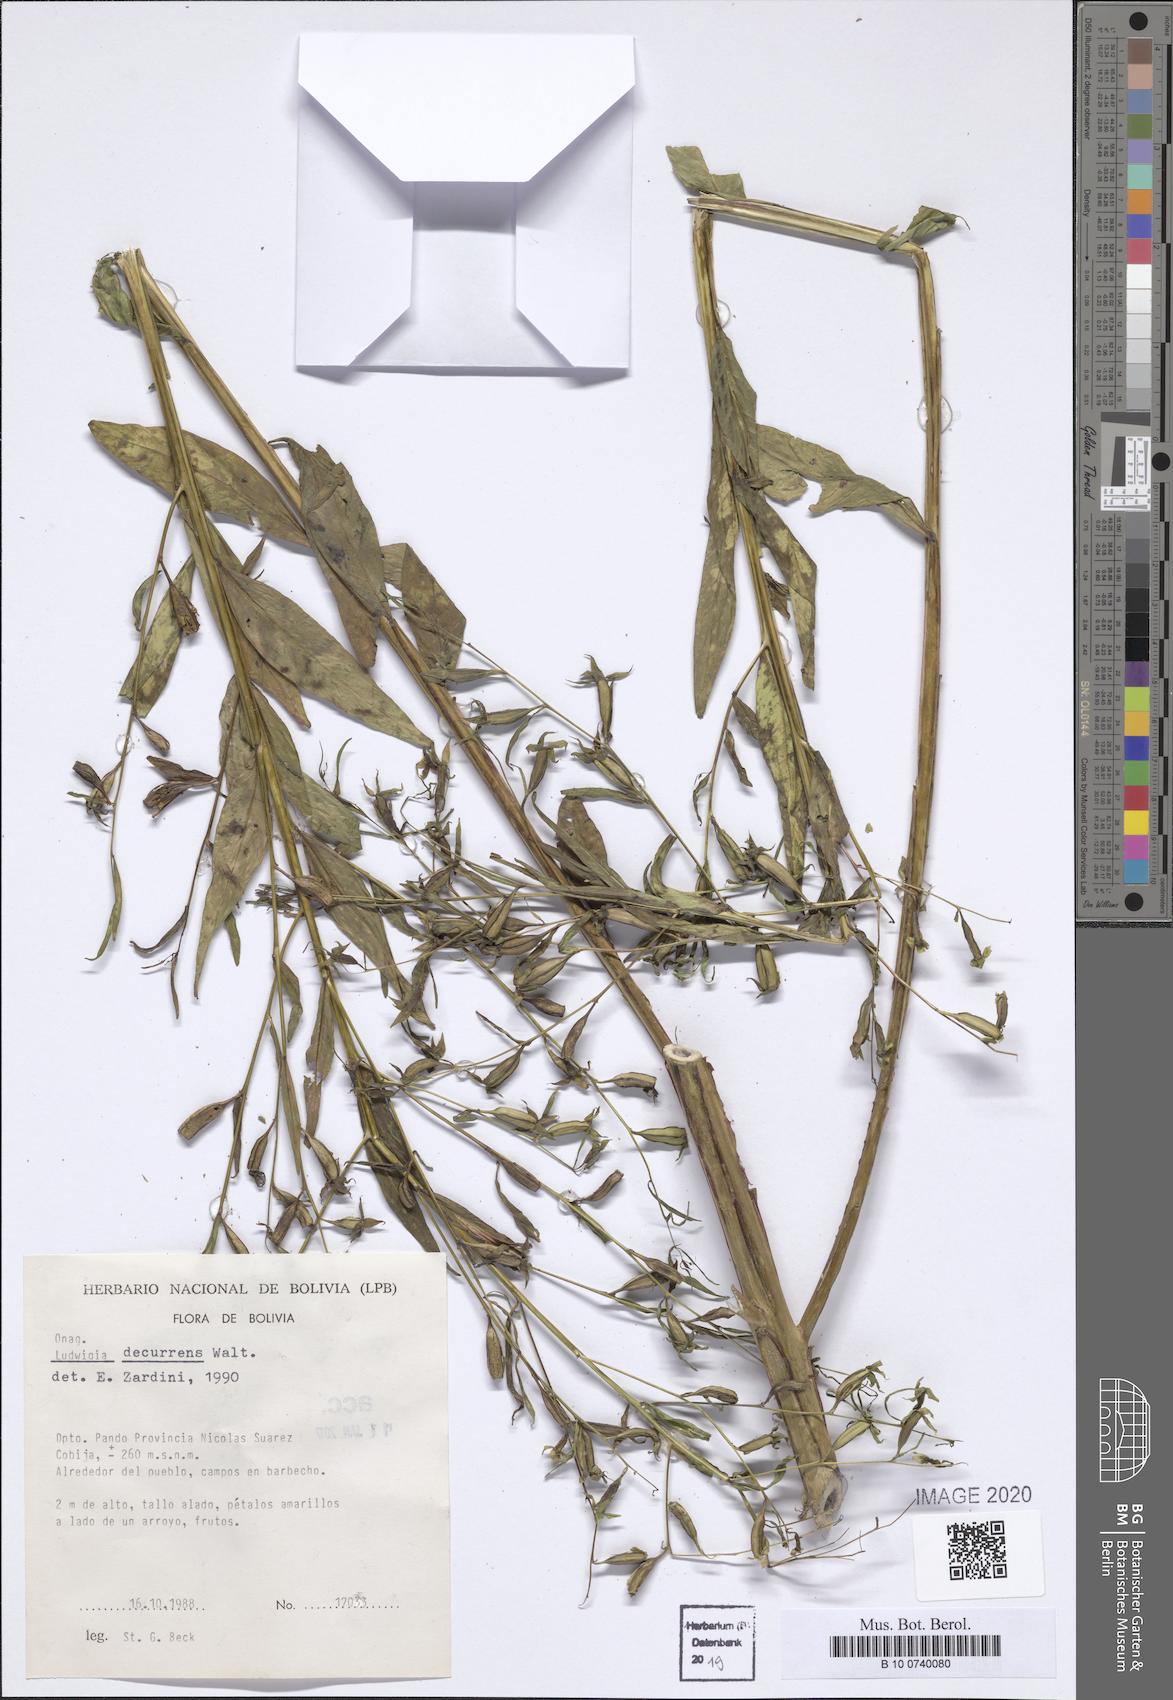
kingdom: Plantae
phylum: Tracheophyta
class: Magnoliopsida
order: Myrtales
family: Onagraceae
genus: Ludwigia
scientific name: Ludwigia decurrens
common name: Winged water-primrose
